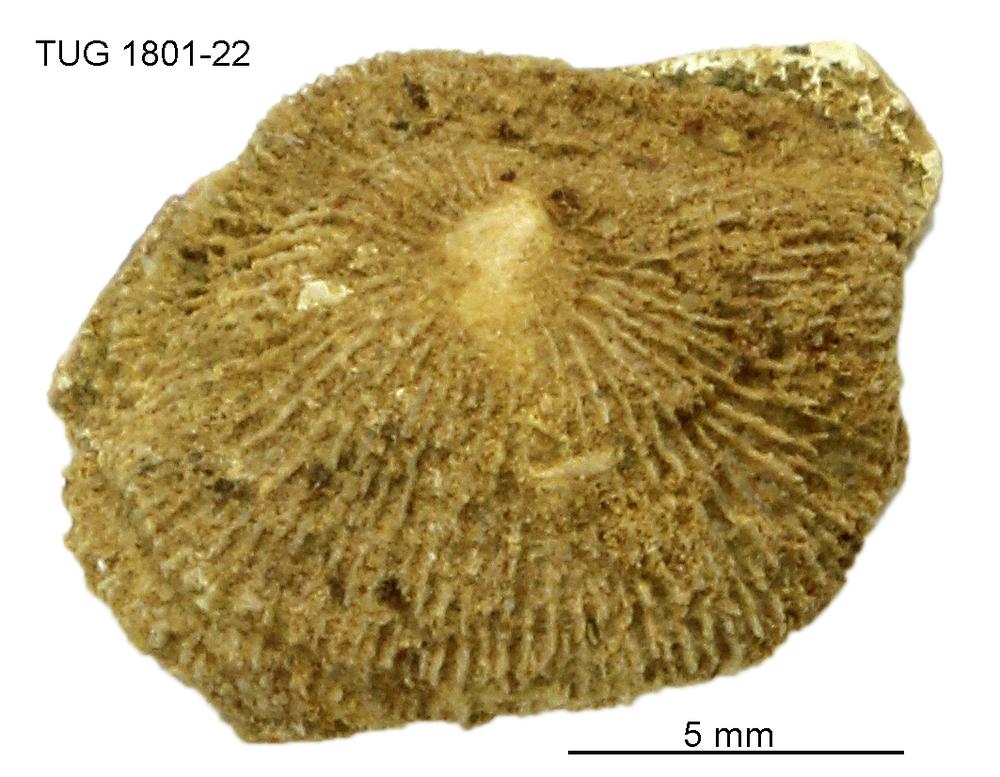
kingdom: Animalia
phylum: Brachiopoda
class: Craniata
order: Craniida
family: Craniidae
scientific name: Craniidae
